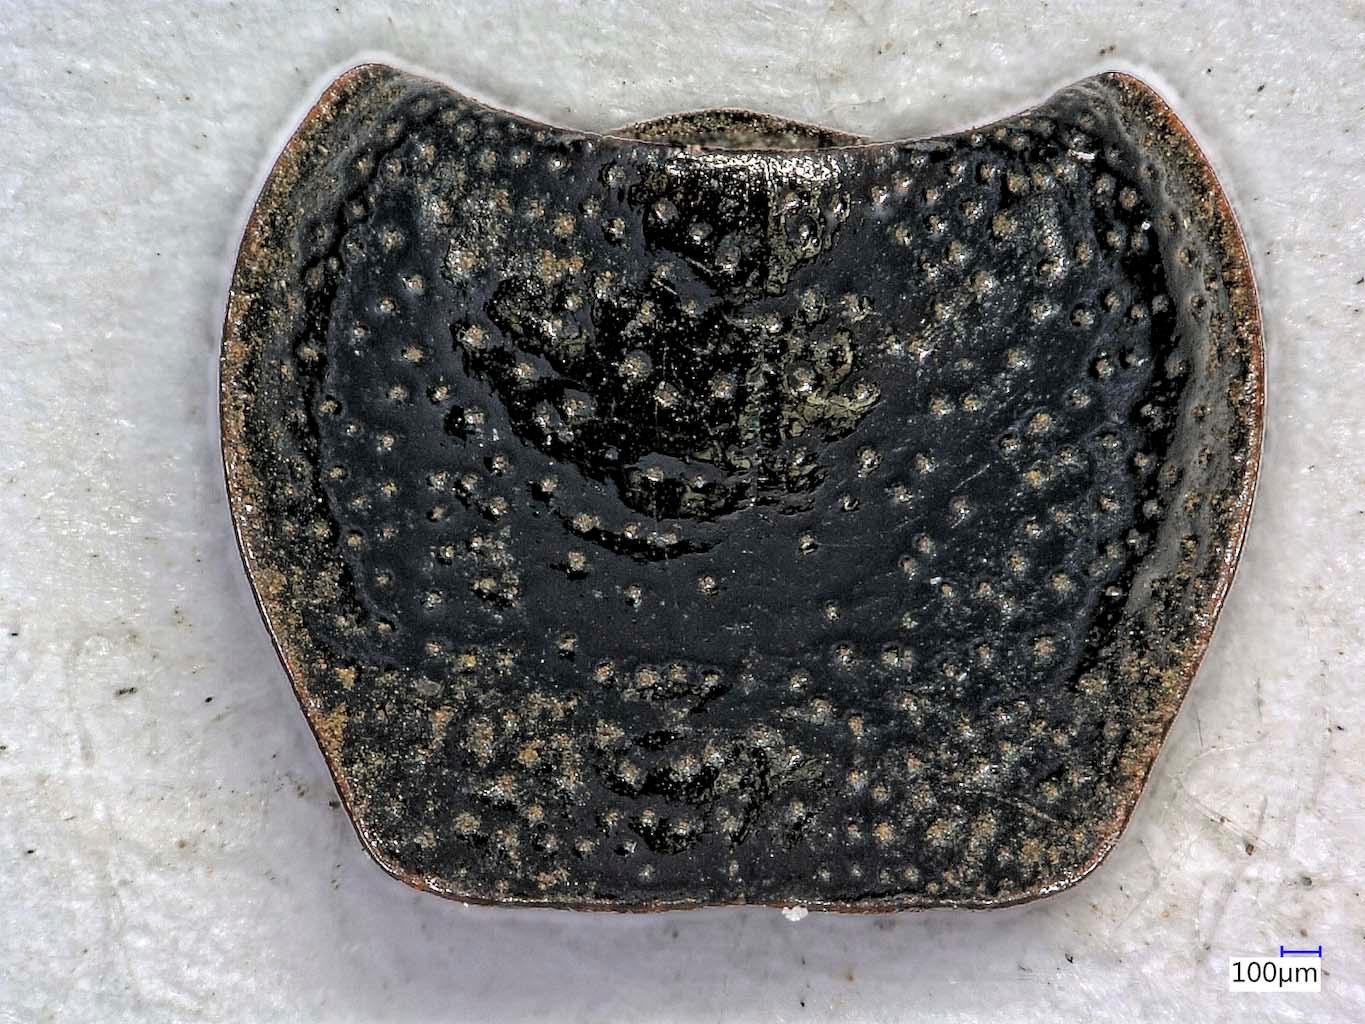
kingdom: Animalia
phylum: Arthropoda
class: Insecta
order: Coleoptera
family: Carabidae
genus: Dicheirus
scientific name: Dicheirus dilatatus
